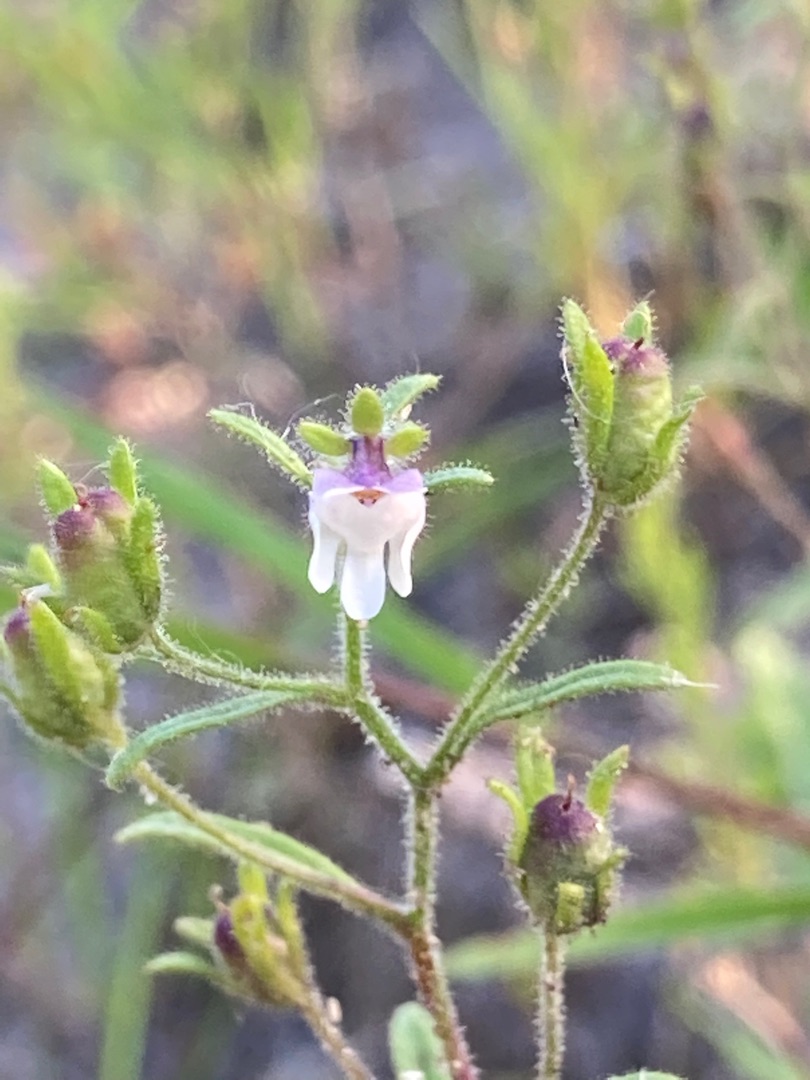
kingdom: Plantae
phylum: Tracheophyta
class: Magnoliopsida
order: Lamiales
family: Plantaginaceae
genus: Chaenorhinum
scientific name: Chaenorhinum minus
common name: Liden torskemund
